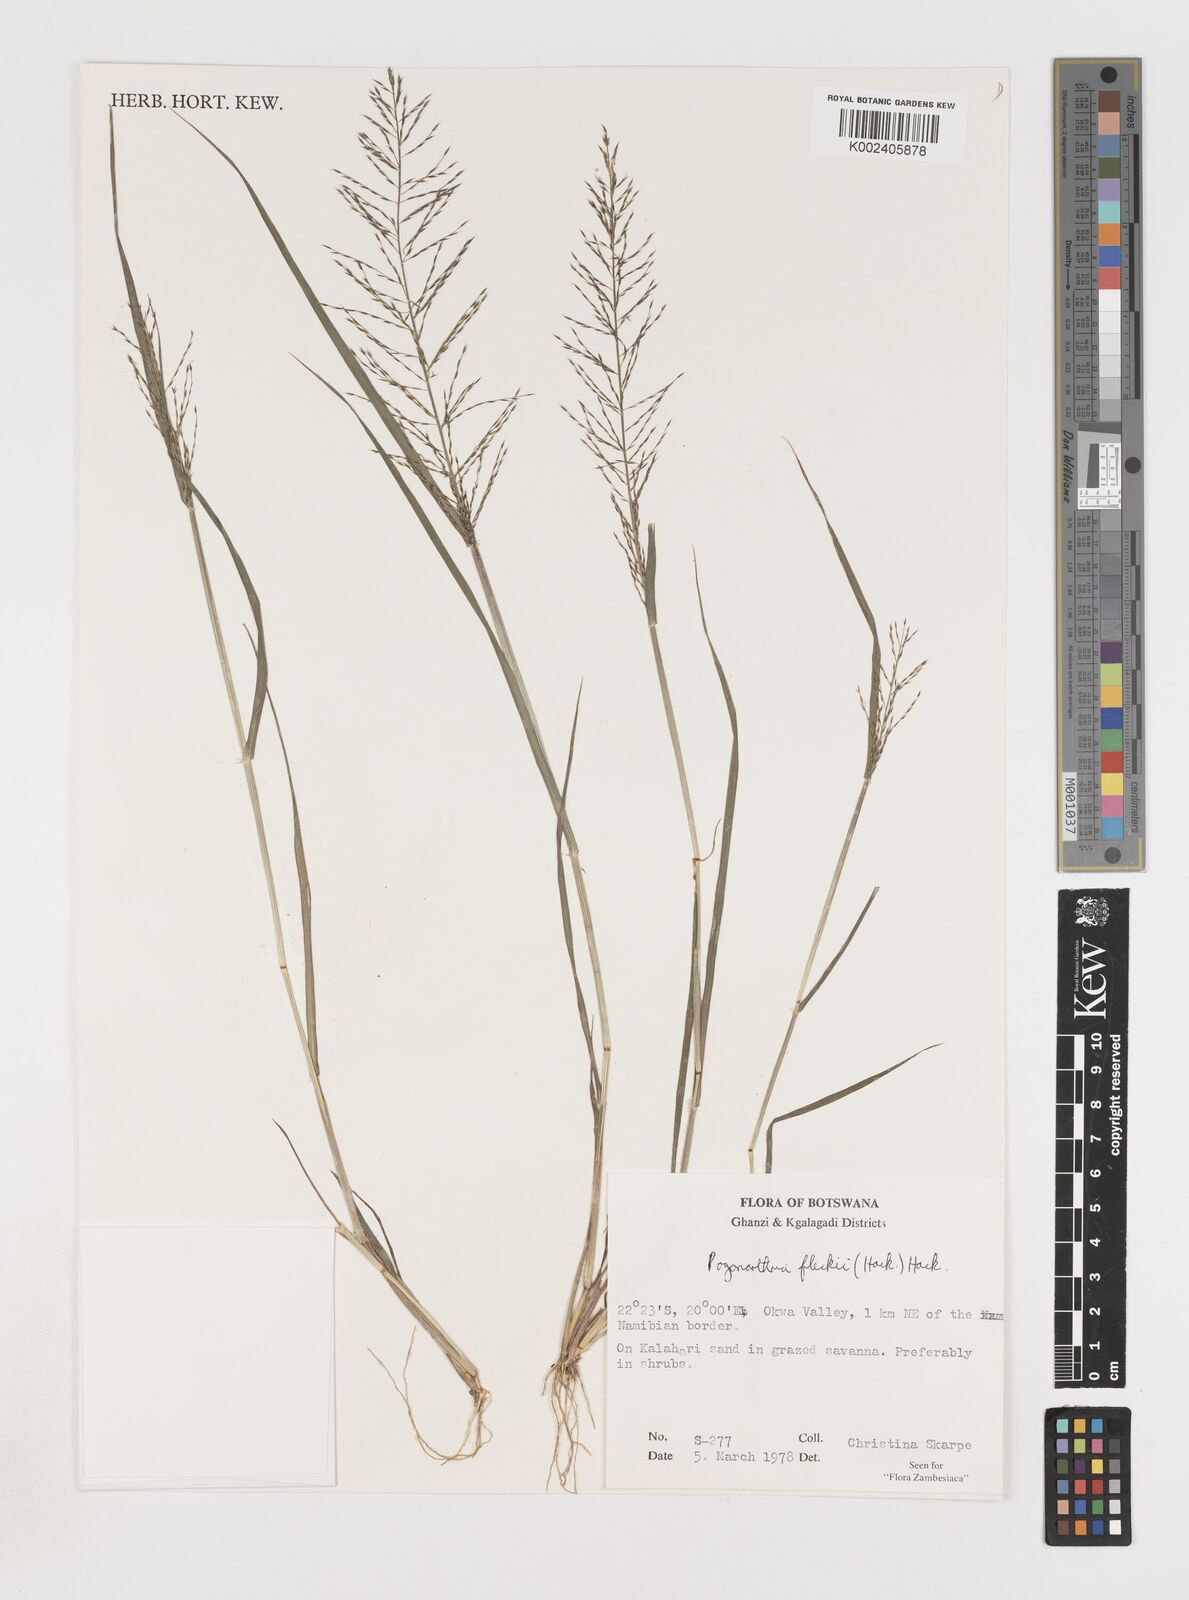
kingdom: Plantae
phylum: Tracheophyta
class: Liliopsida
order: Poales
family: Poaceae
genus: Pogonarthria
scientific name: Pogonarthria fleckii
